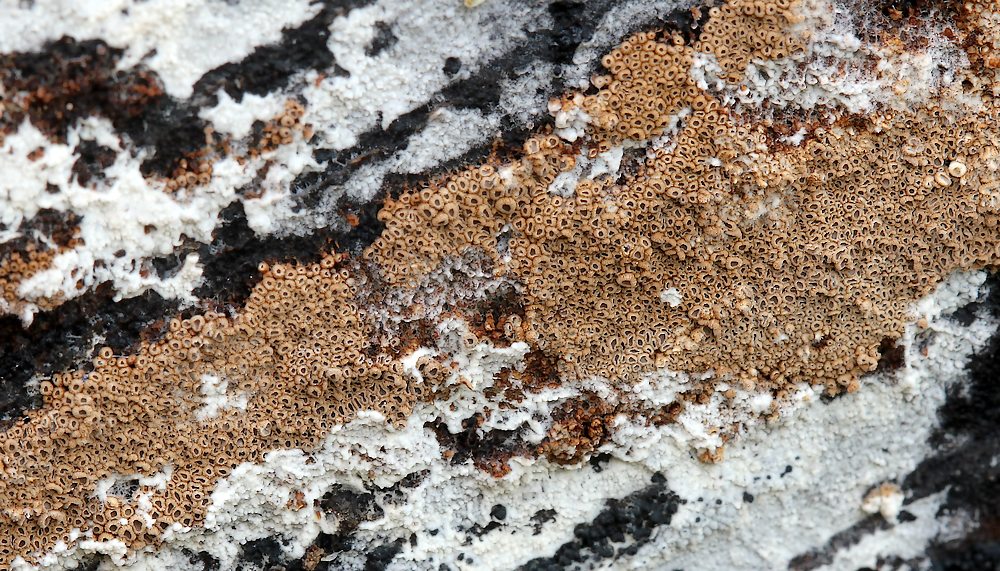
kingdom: Fungi
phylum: Basidiomycota
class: Agaricomycetes
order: Agaricales
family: Niaceae
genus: Merismodes
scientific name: Merismodes anomala
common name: almindelig læderskål
